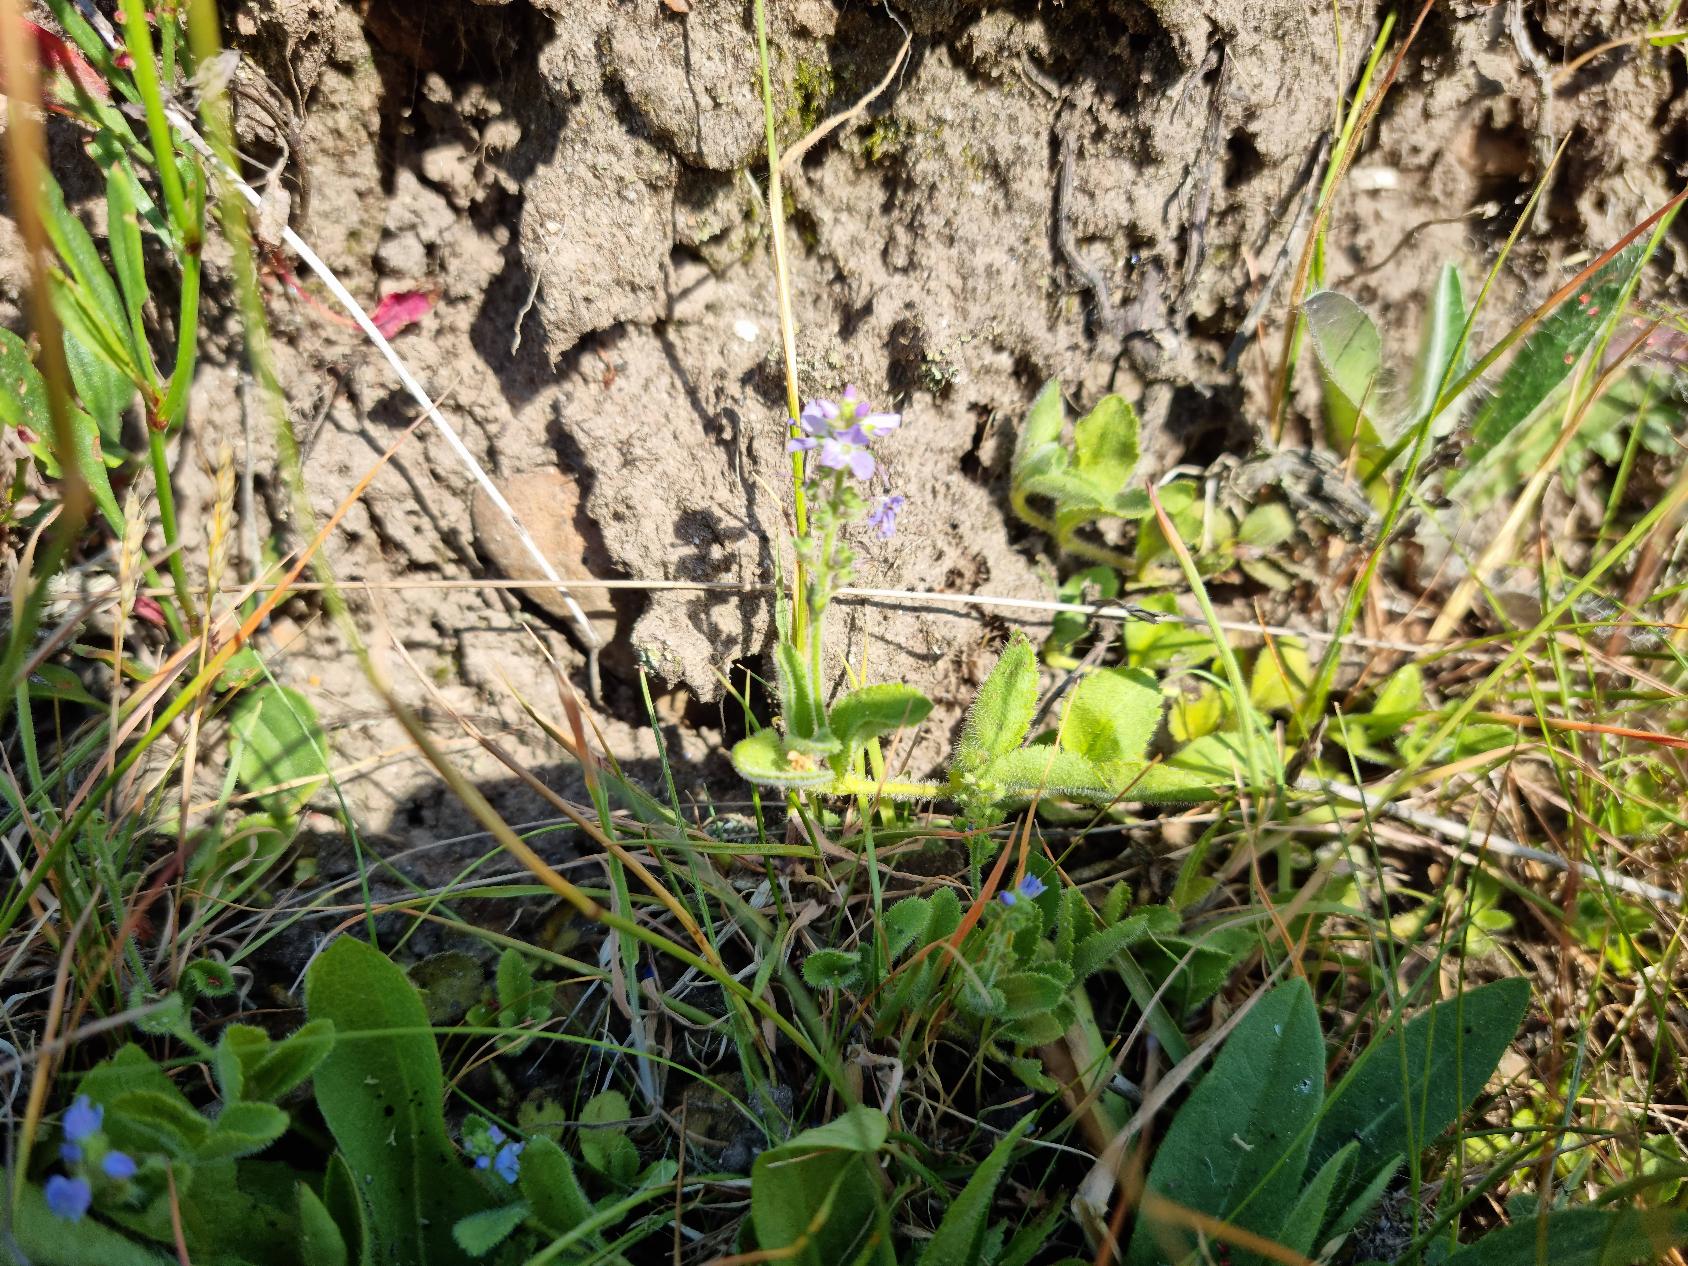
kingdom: Plantae
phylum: Tracheophyta
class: Magnoliopsida
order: Lamiales
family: Plantaginaceae
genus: Veronica
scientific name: Veronica officinalis
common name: Læge-ærenpris
